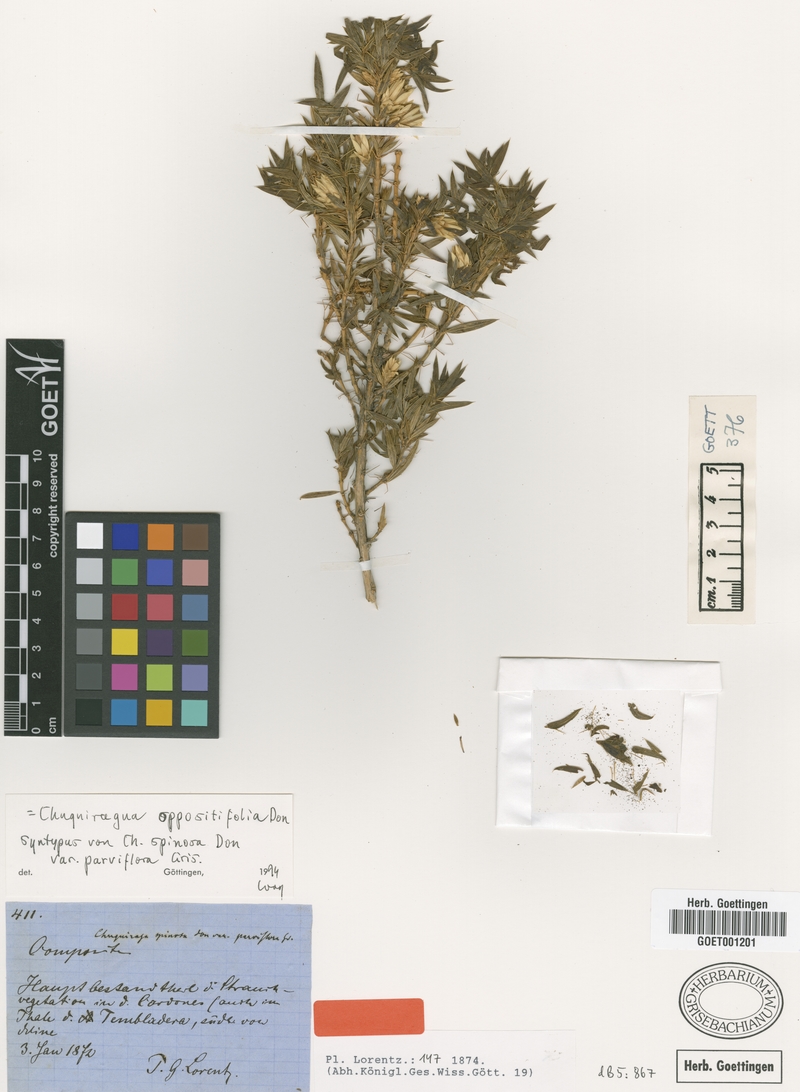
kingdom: Plantae
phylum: Tracheophyta
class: Magnoliopsida
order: Asterales
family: Asteraceae
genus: Chuquiraga
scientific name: Chuquiraga oppositifolia
